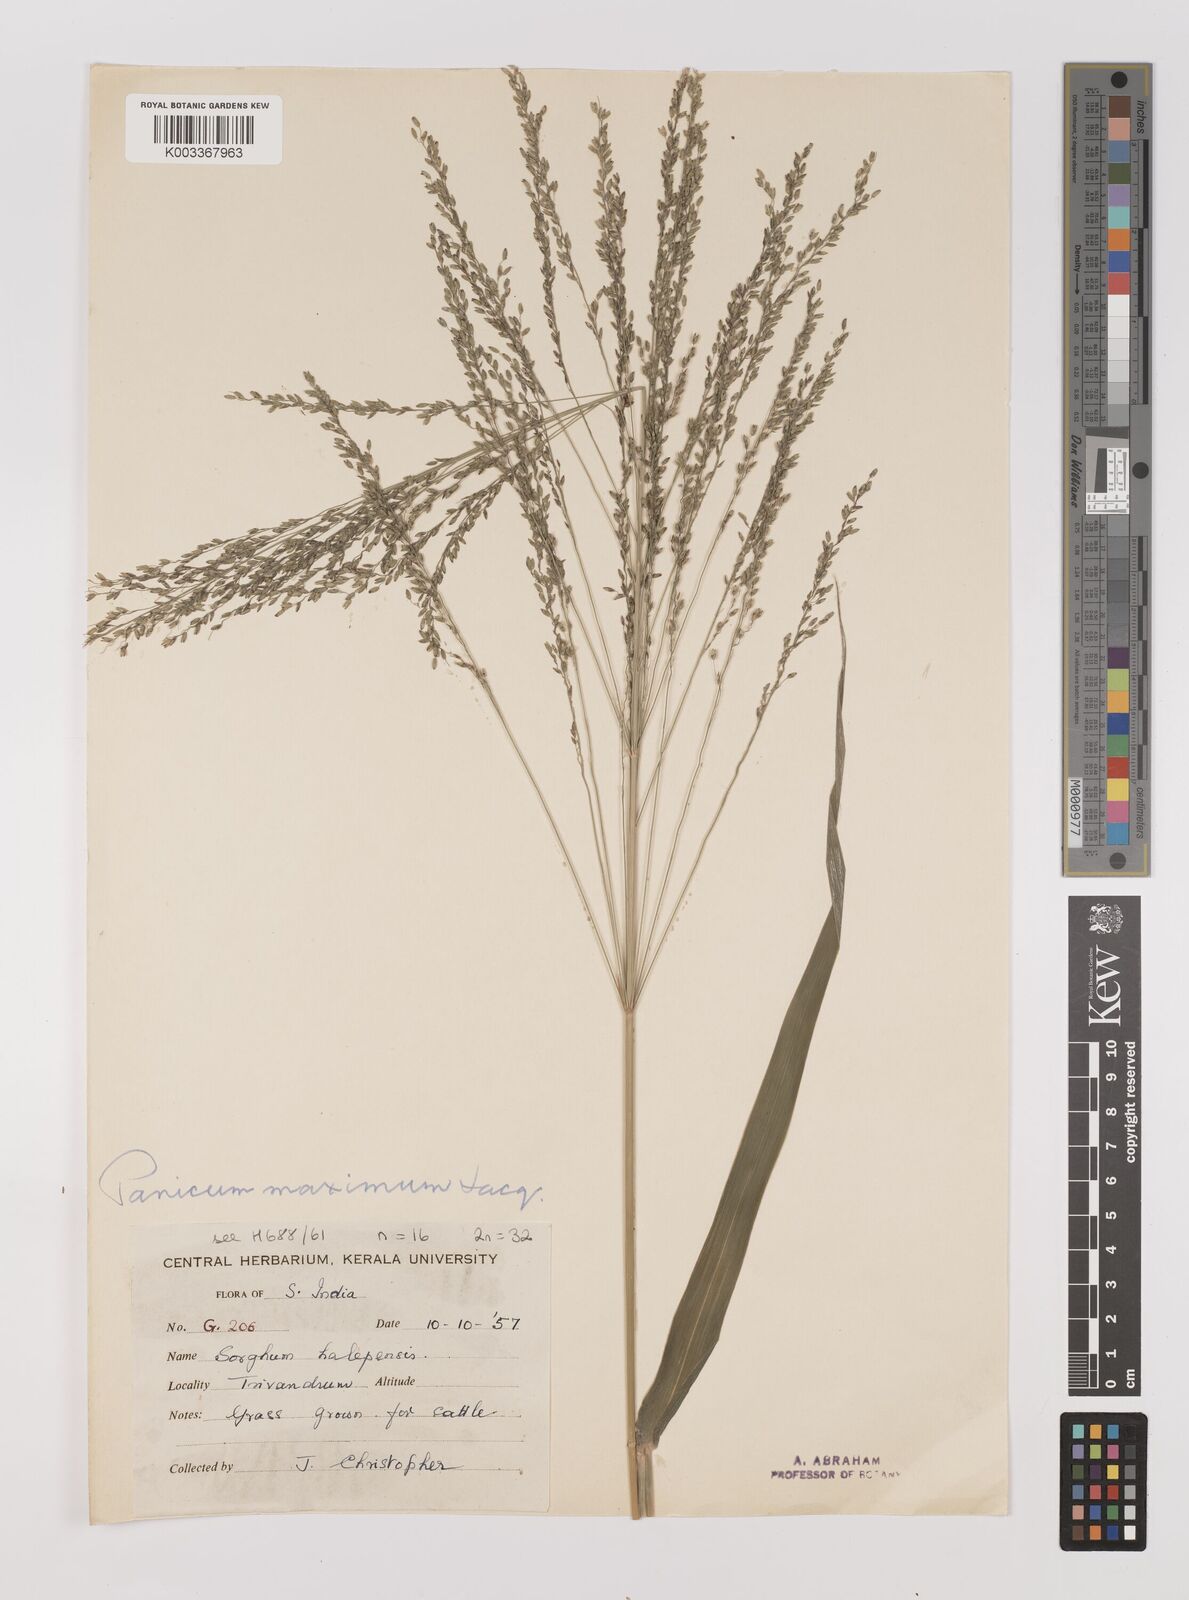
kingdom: Plantae
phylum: Tracheophyta
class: Liliopsida
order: Poales
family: Poaceae
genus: Megathyrsus
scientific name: Megathyrsus maximus
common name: Guineagrass
